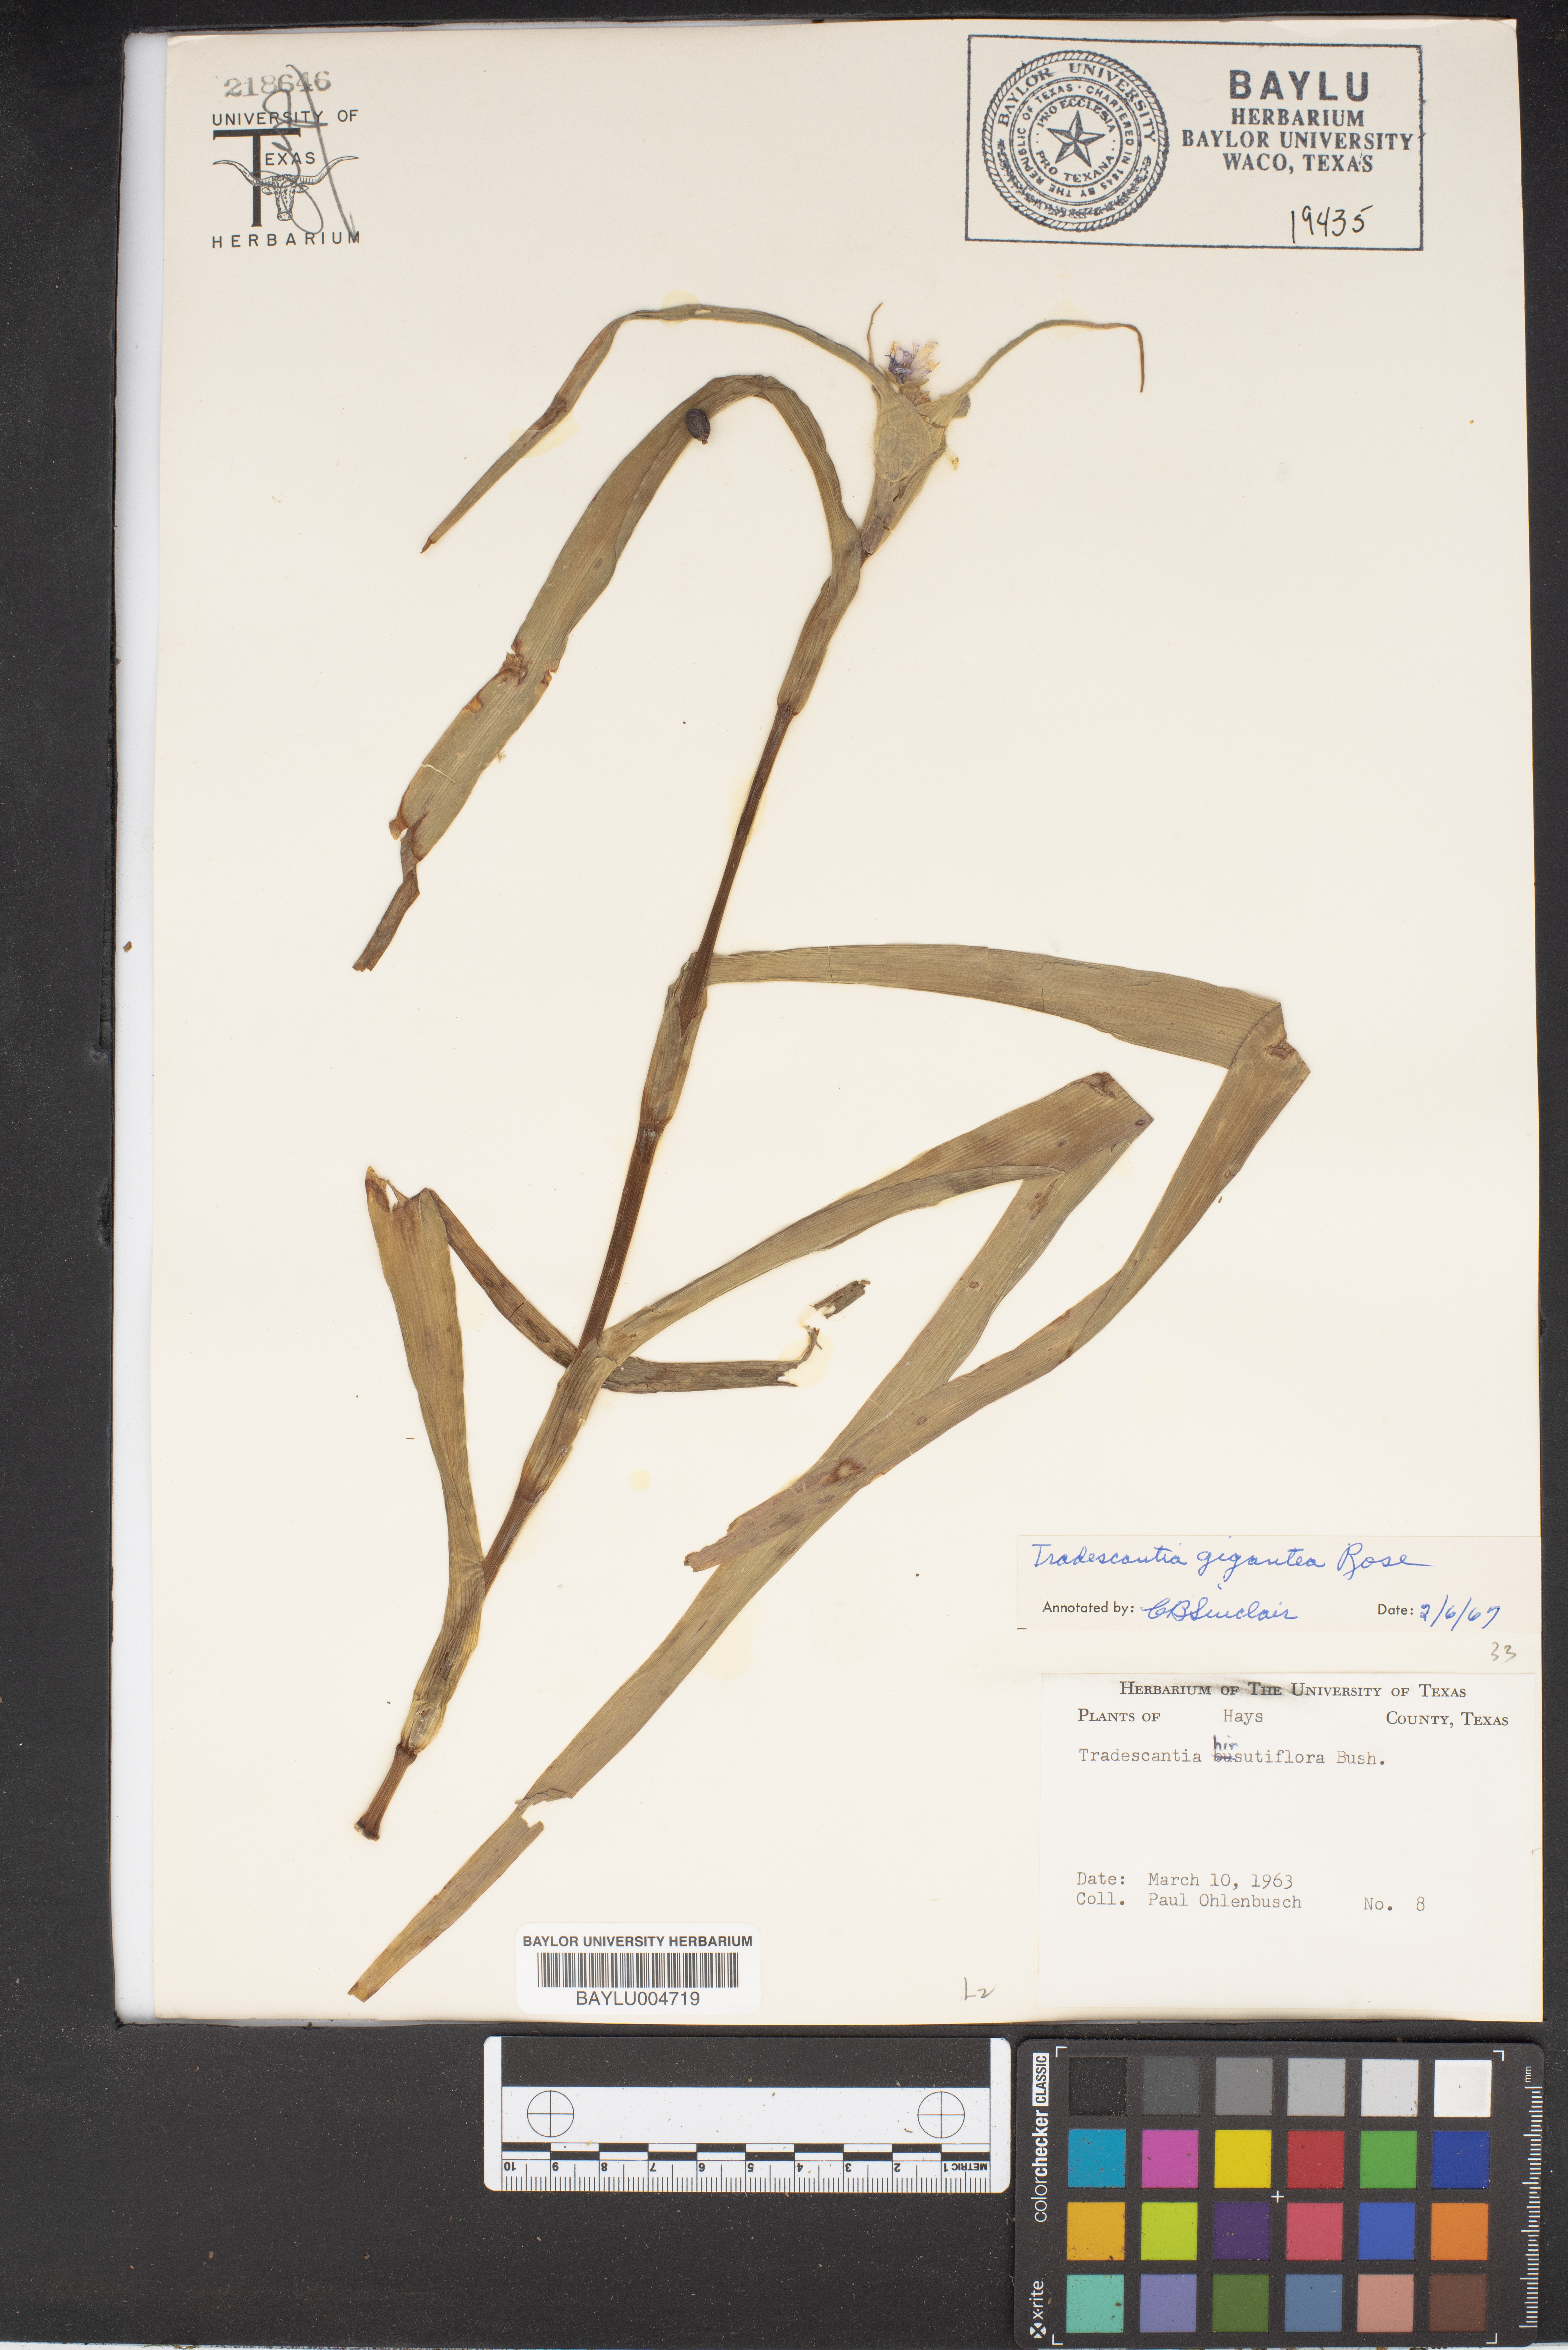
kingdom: Plantae
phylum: Tracheophyta
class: Liliopsida
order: Commelinales
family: Commelinaceae
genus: Tradescantia
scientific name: Tradescantia gigantea
